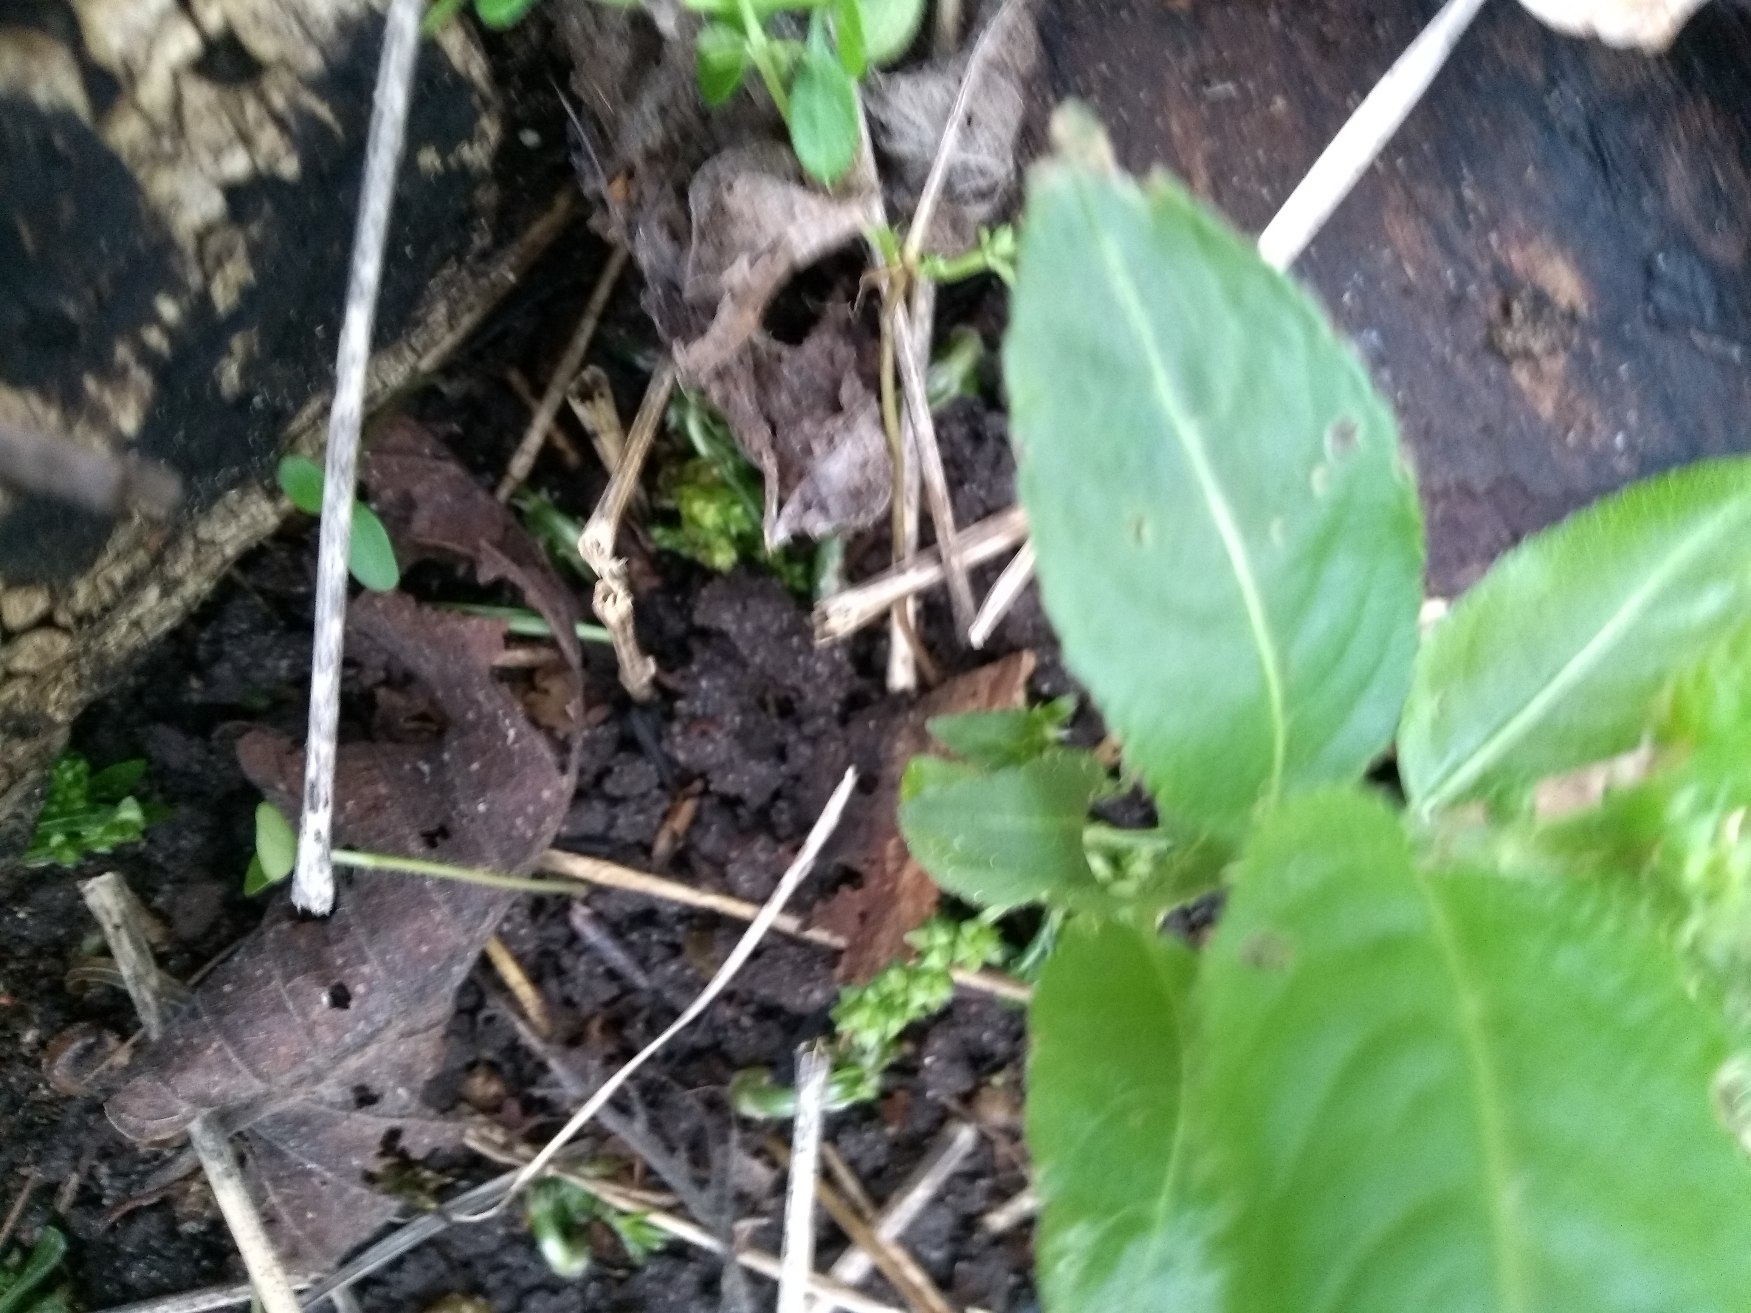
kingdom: Plantae
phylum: Tracheophyta
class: Magnoliopsida
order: Malpighiales
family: Euphorbiaceae
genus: Mercurialis
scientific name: Mercurialis perennis
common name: Almindelig bingelurt
